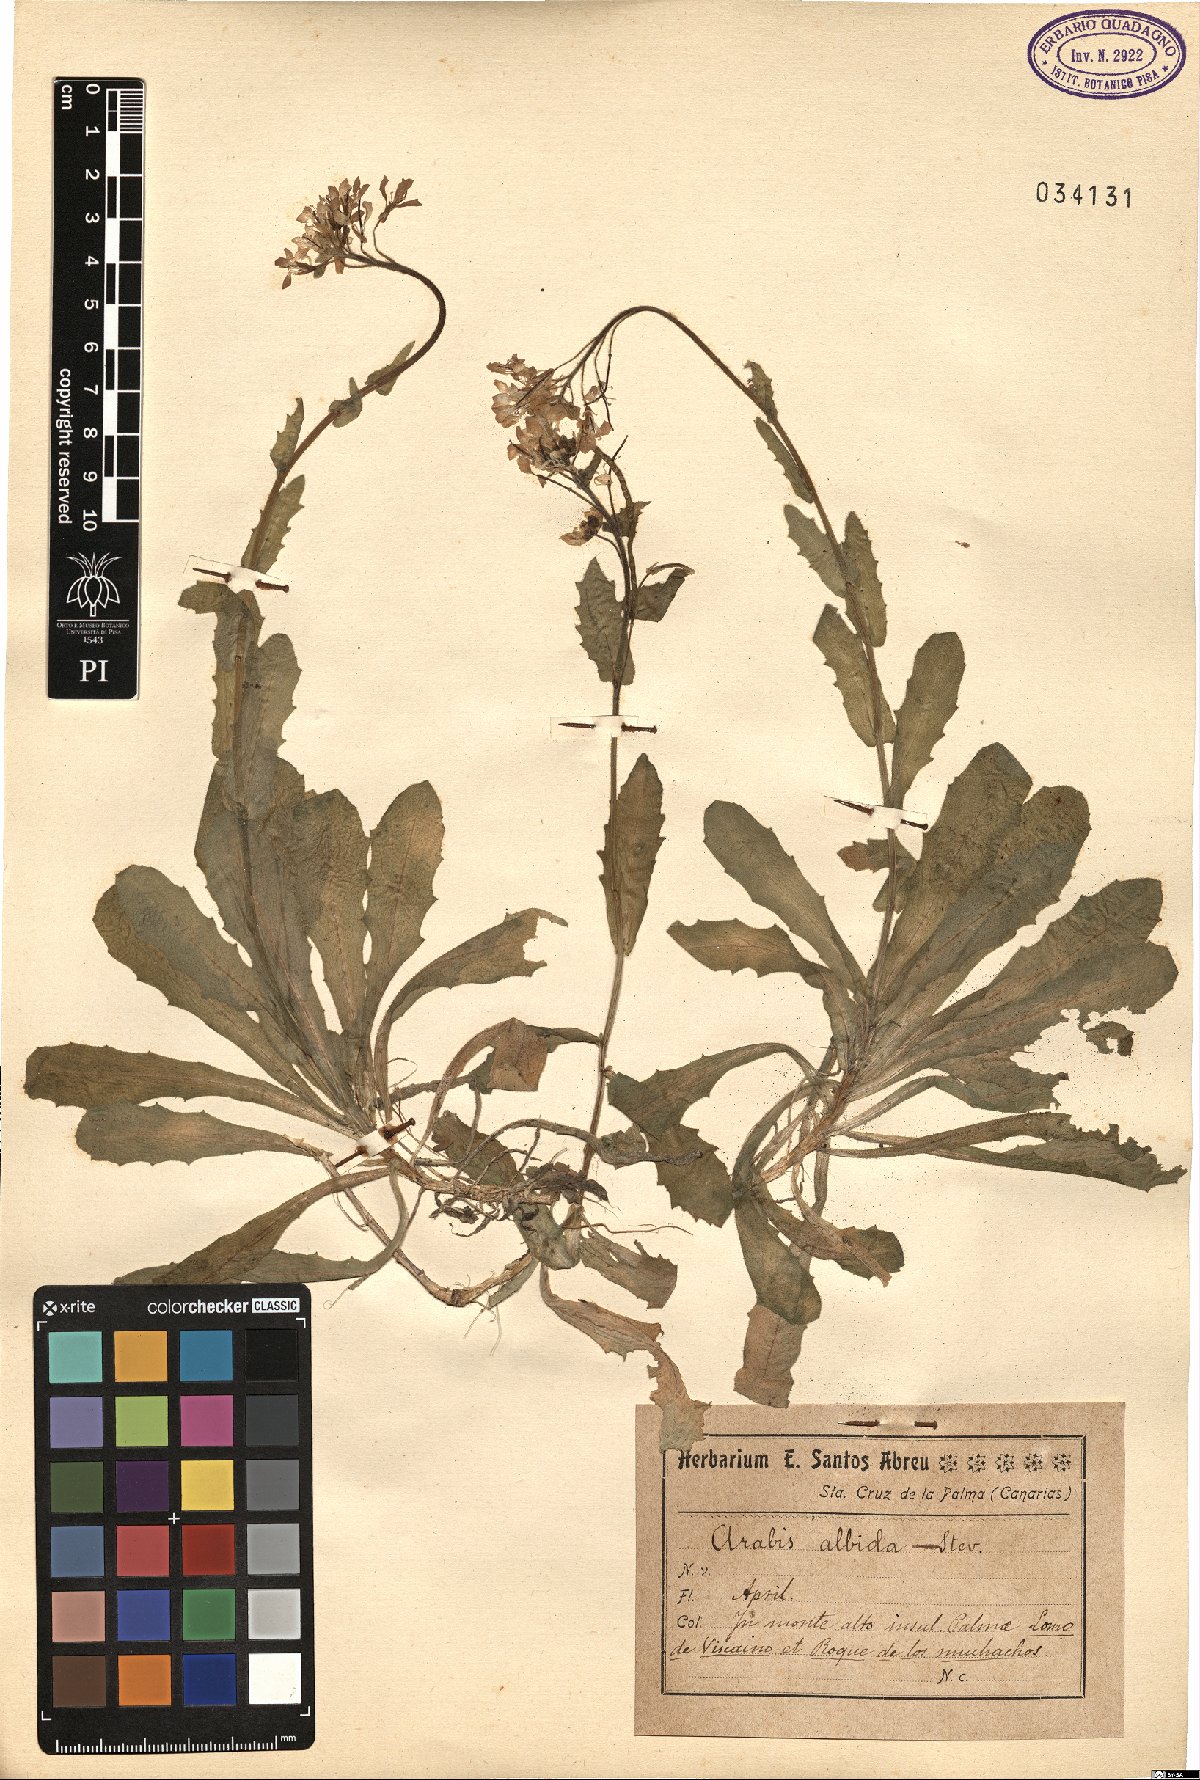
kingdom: Plantae
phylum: Tracheophyta
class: Magnoliopsida
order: Brassicales
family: Brassicaceae
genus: Arabis
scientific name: Arabis caucasica
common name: Gray rockcress
